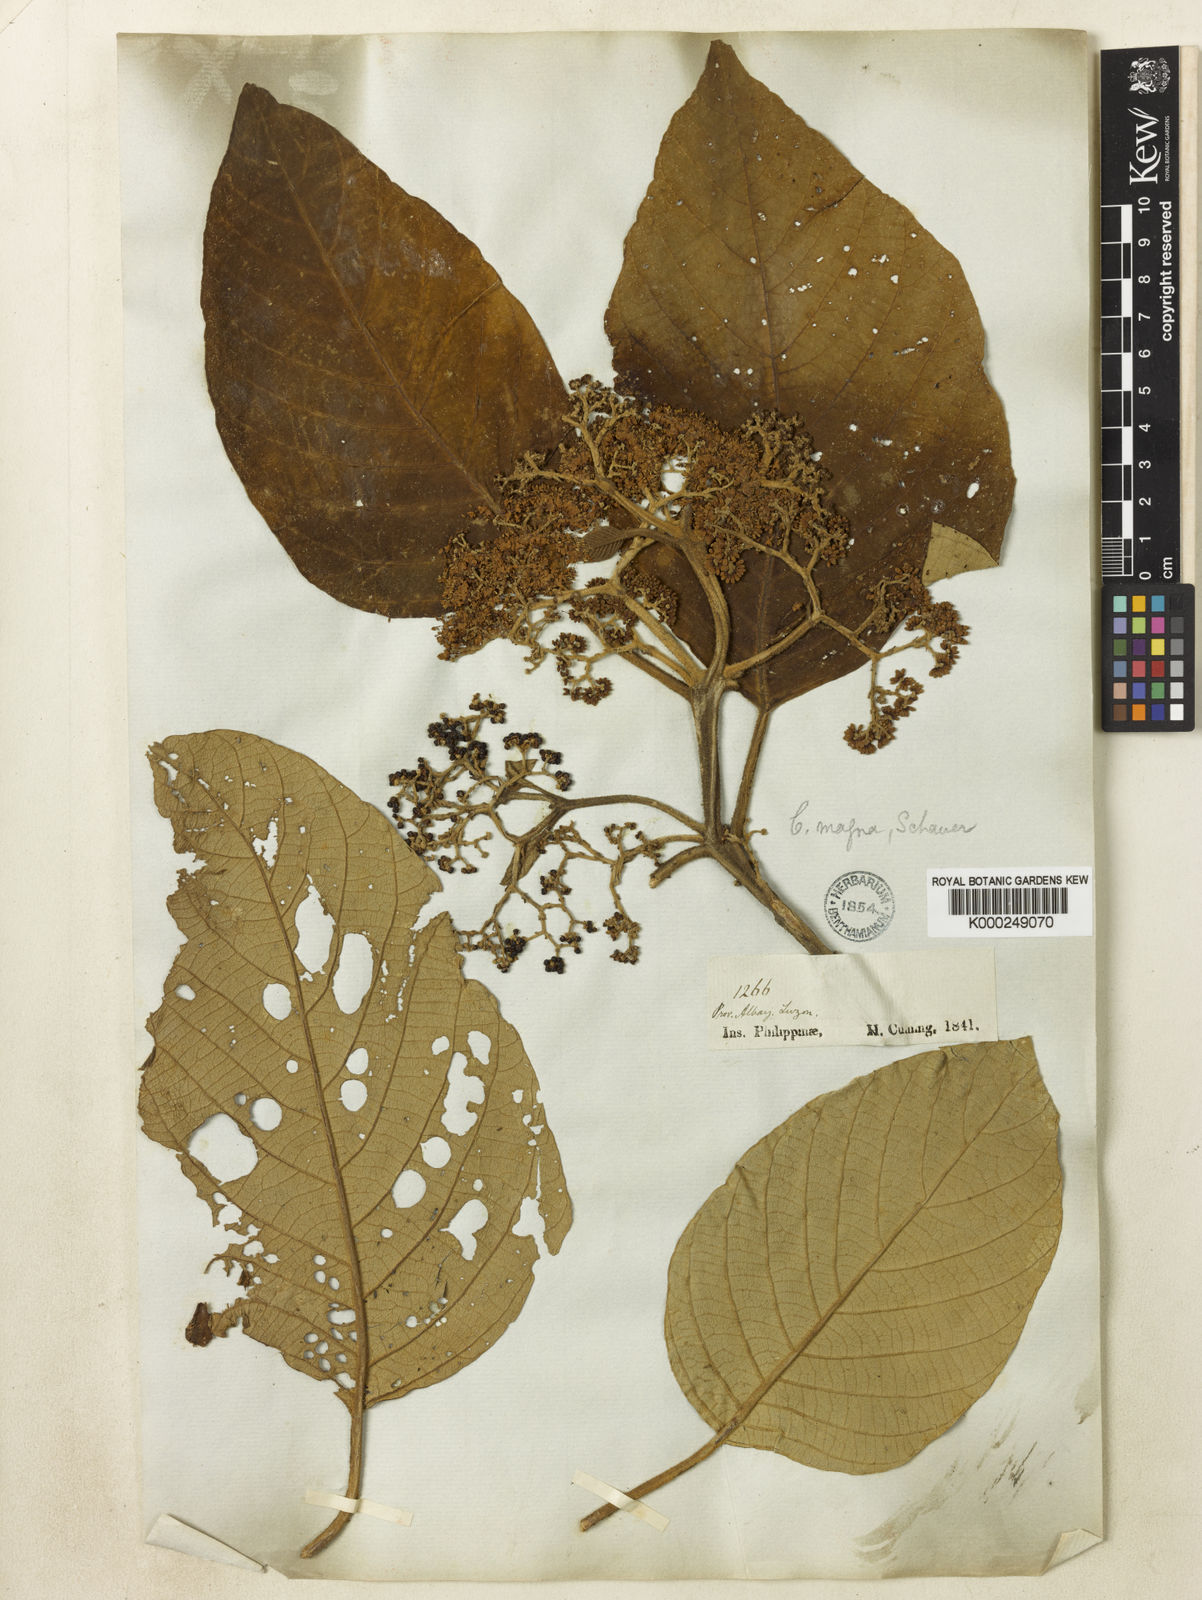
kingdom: Plantae
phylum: Tracheophyta
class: Magnoliopsida
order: Lamiales
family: Lamiaceae
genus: Callicarpa
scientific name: Callicarpa arborea
